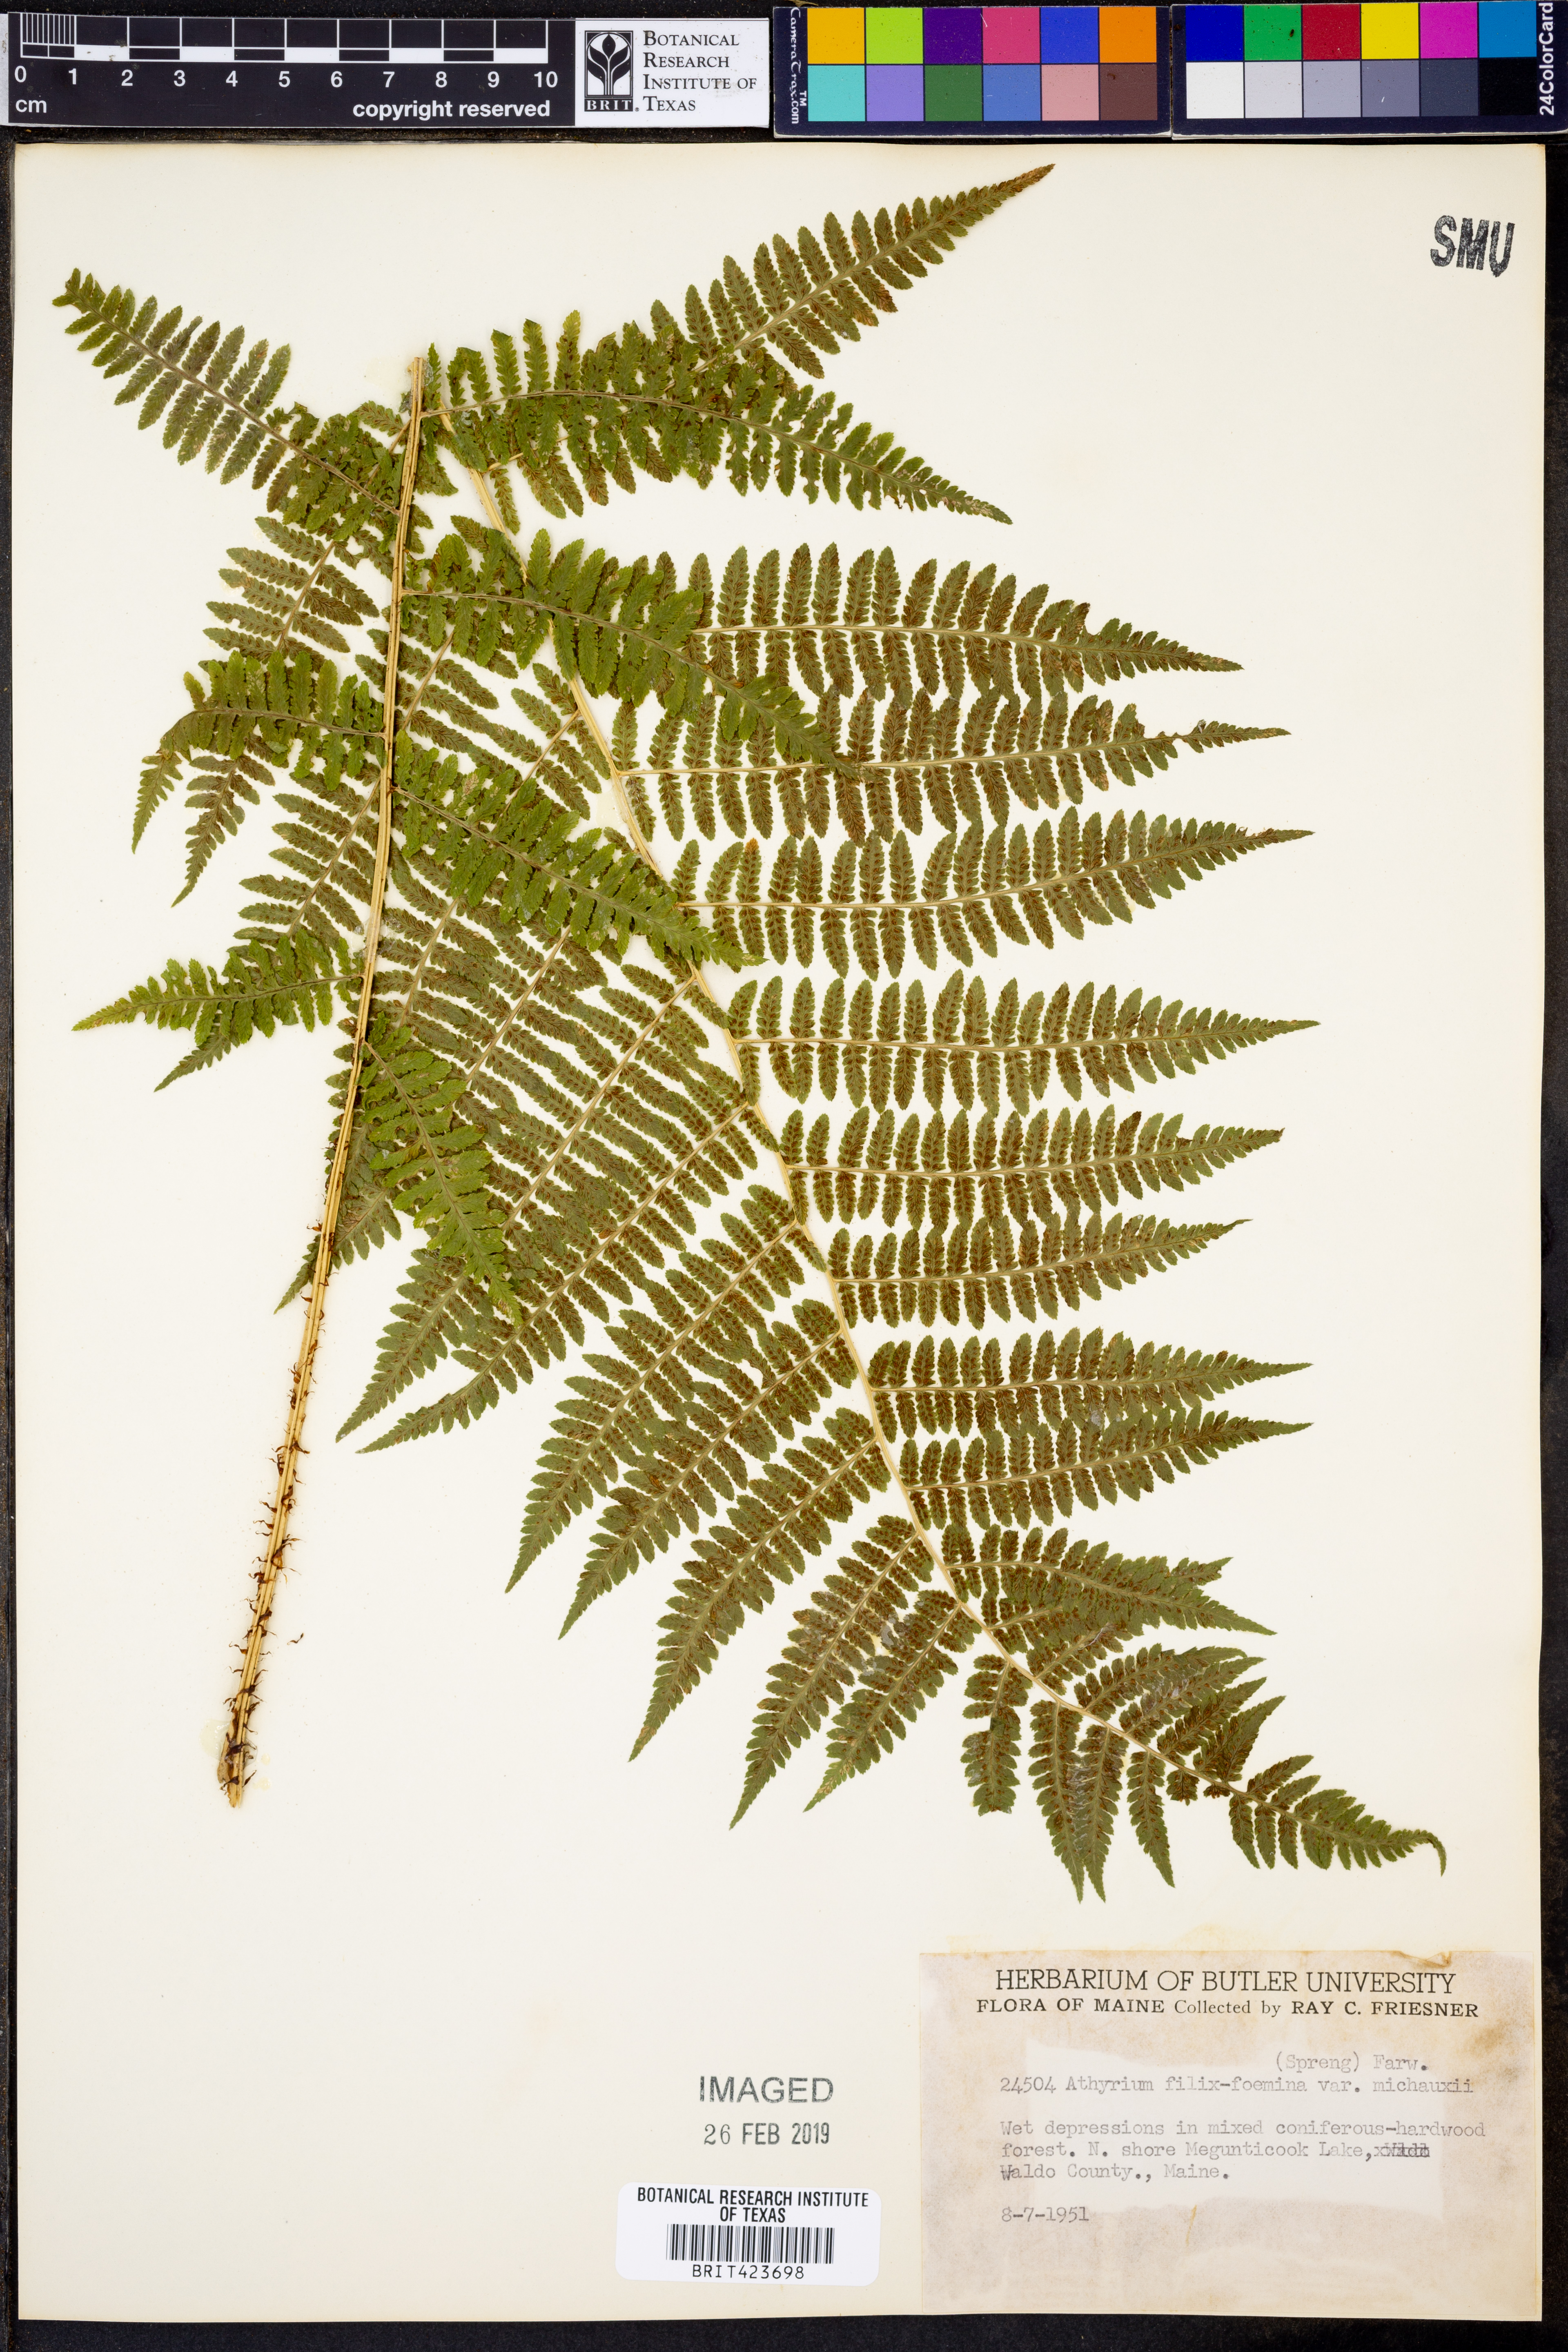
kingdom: Plantae
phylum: Tracheophyta
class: Polypodiopsida
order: Polypodiales
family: Athyriaceae
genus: Athyrium
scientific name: Athyrium angustum
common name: Northern lady fern
